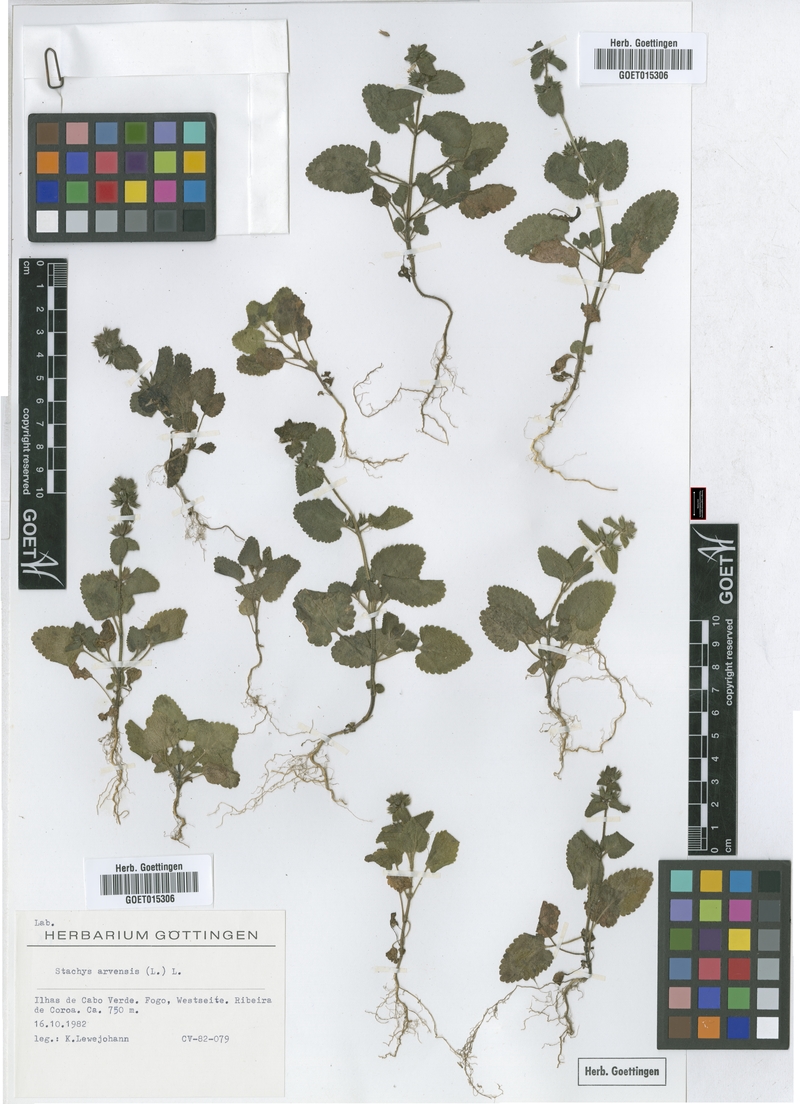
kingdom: Plantae
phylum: Tracheophyta
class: Magnoliopsida
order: Lamiales
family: Lamiaceae
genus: Stachys
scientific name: Stachys arvensis
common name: Field woundwort
